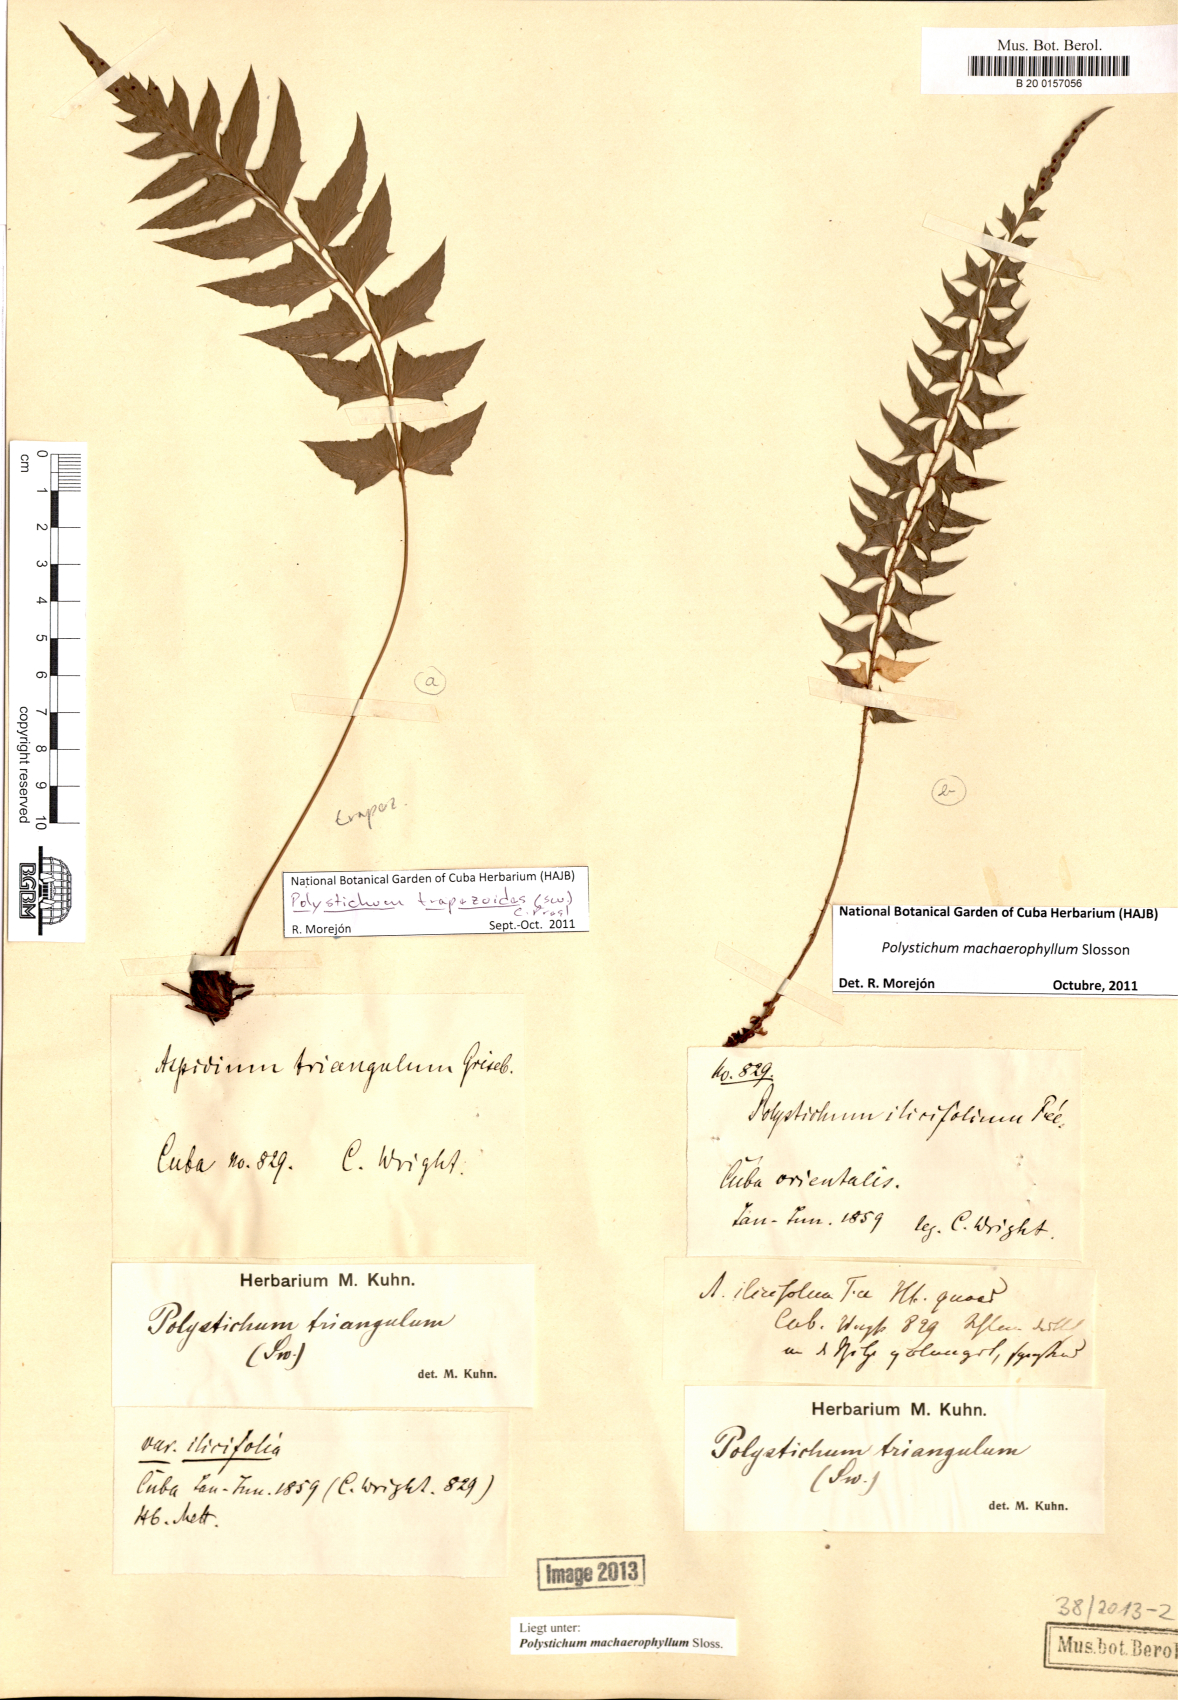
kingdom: Plantae
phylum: Tracheophyta
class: Polypodiopsida
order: Polypodiales
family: Dryopteridaceae
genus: Polystichum
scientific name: Polystichum machaerophyllum
